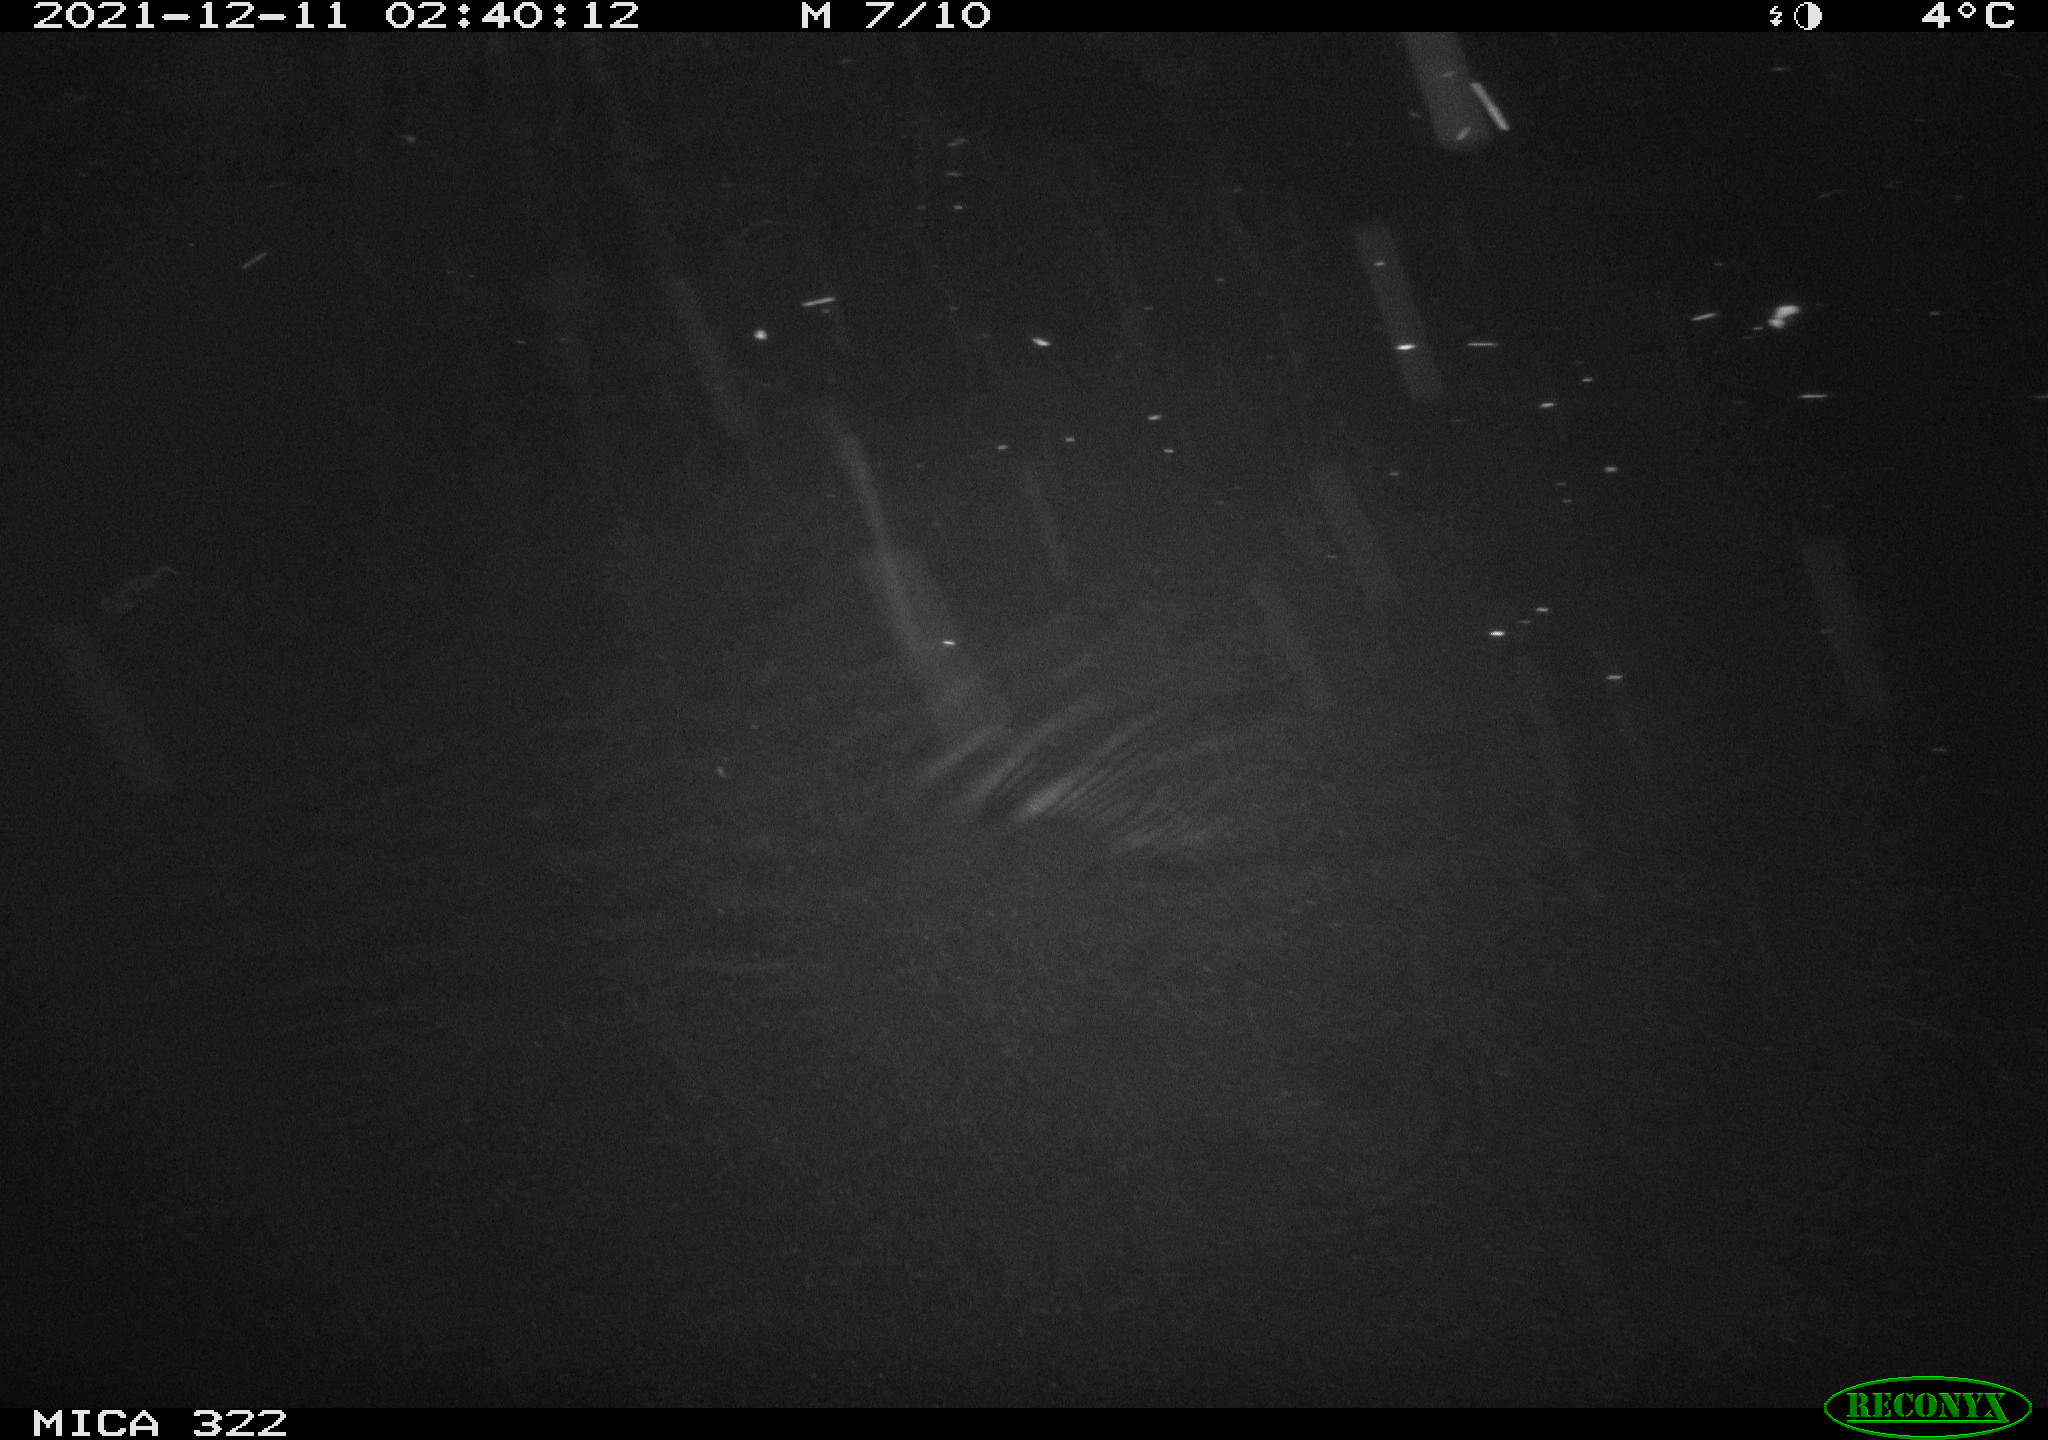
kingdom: Animalia
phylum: Chordata
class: Mammalia
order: Rodentia
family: Muridae
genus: Rattus
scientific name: Rattus norvegicus
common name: Brown rat
